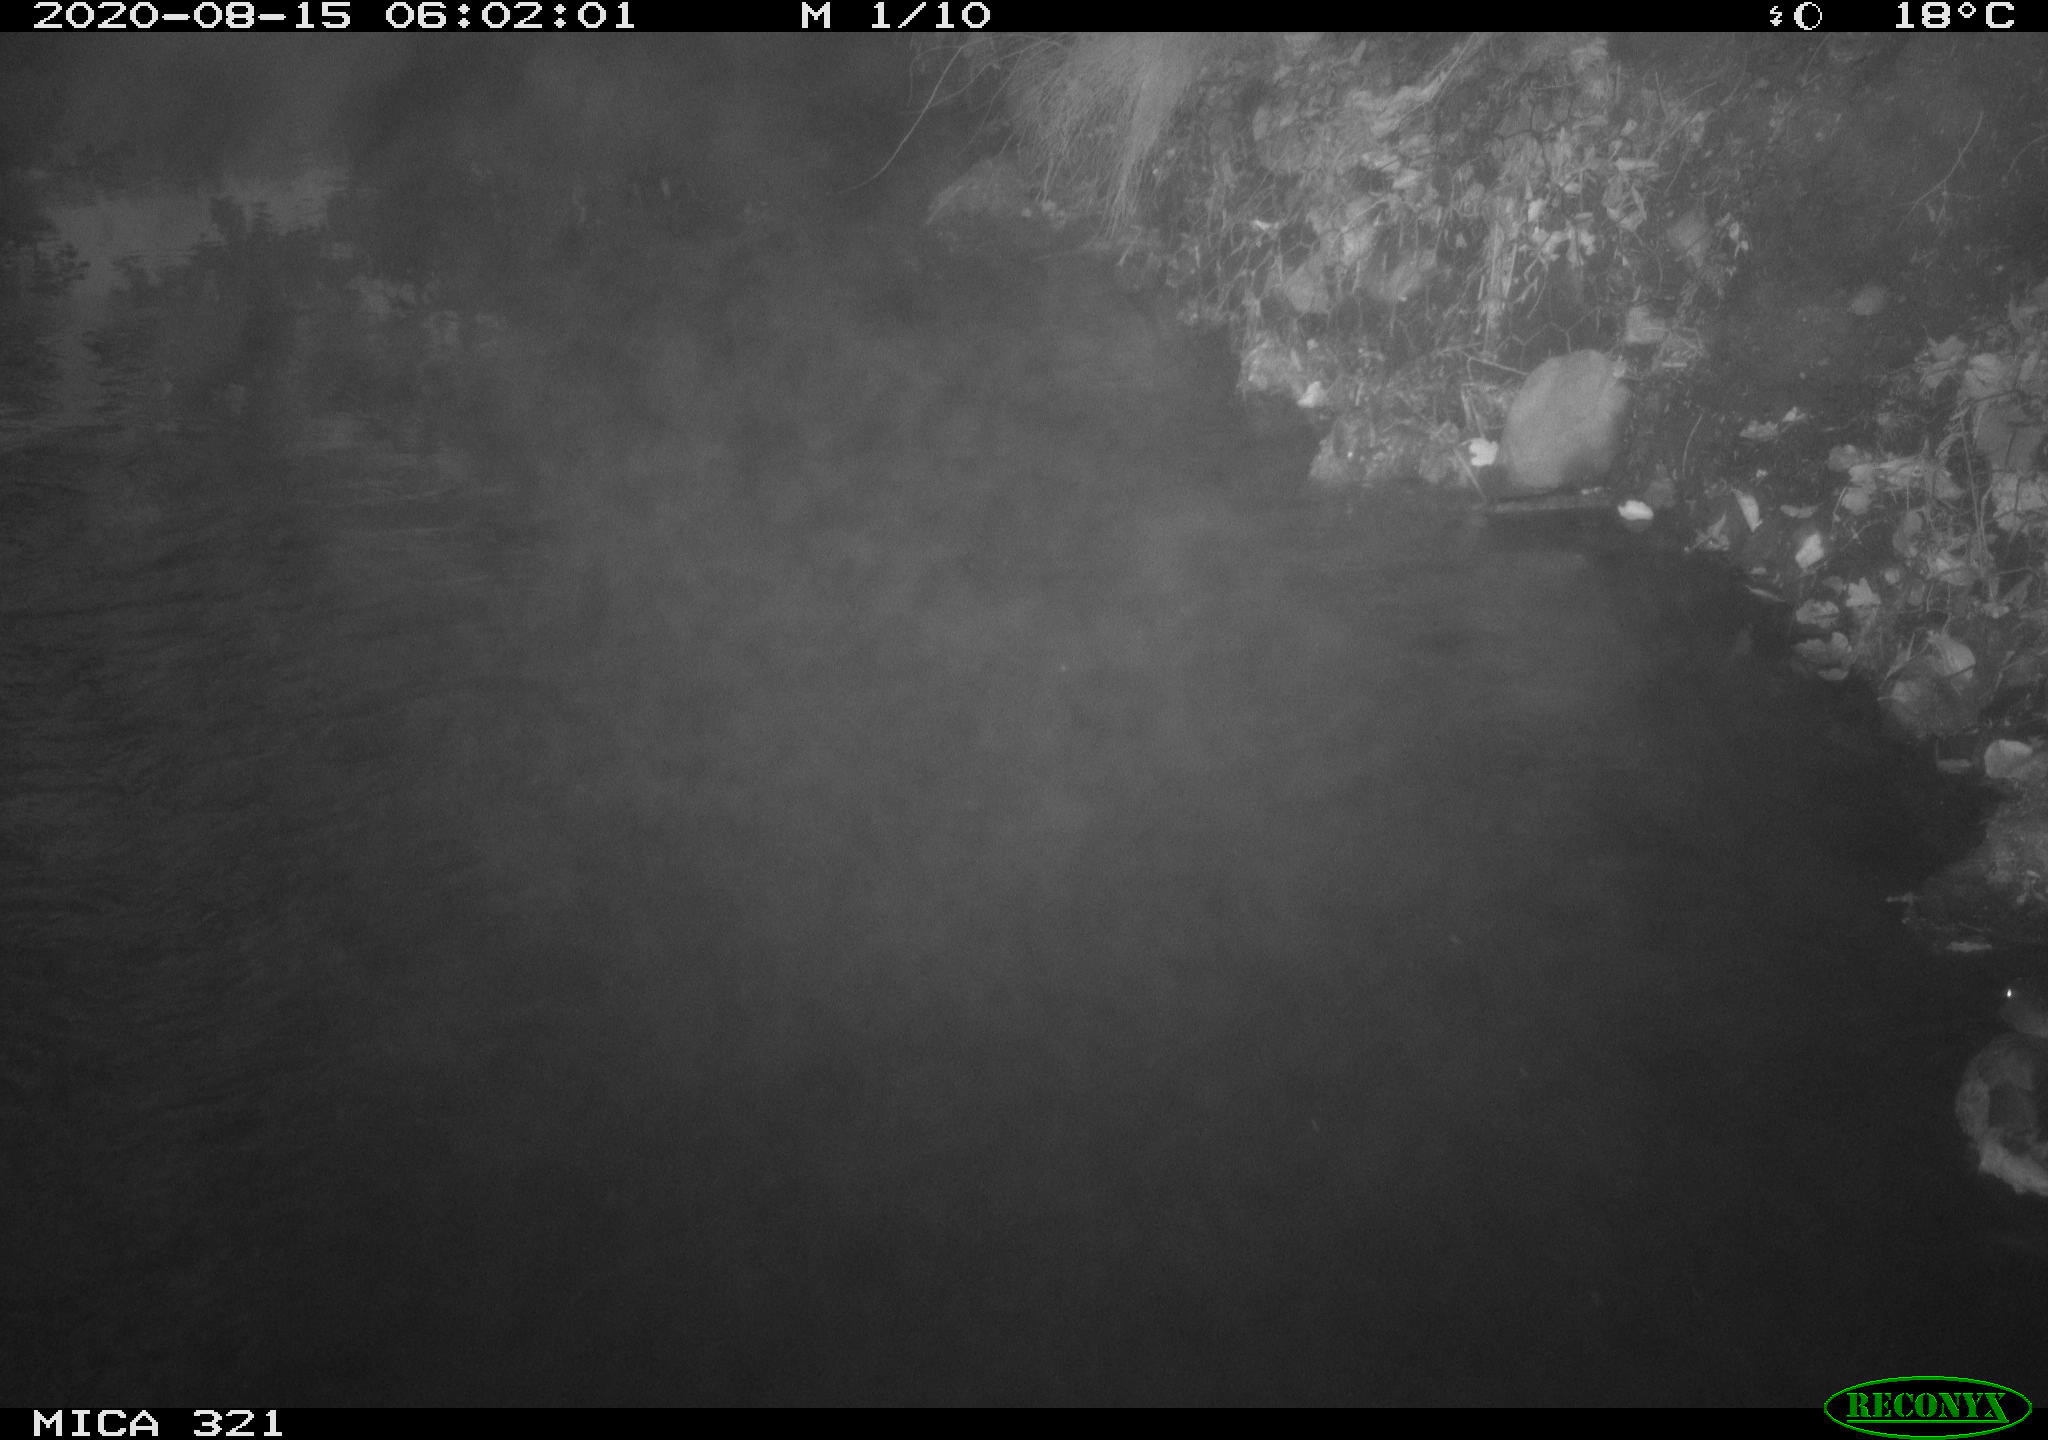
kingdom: Animalia
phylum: Chordata
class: Aves
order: Anseriformes
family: Anatidae
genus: Anas
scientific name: Anas platyrhynchos
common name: Mallard
